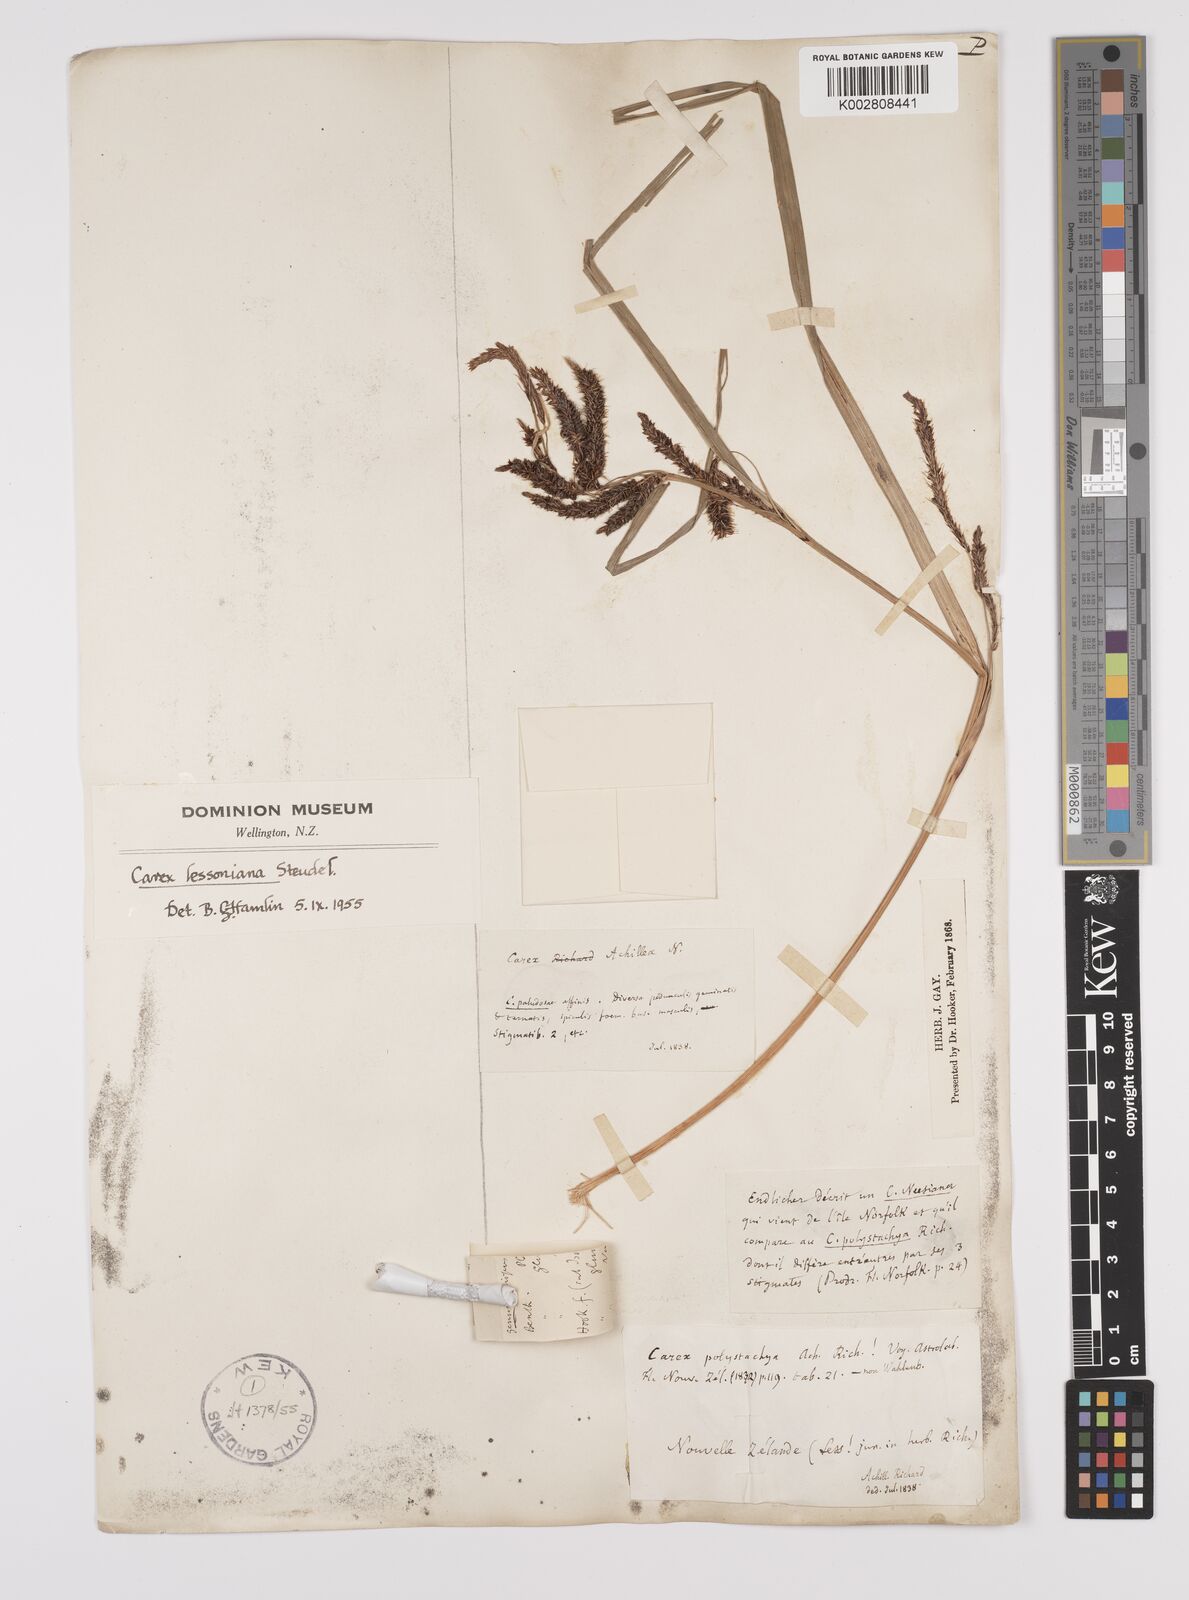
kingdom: Plantae
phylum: Tracheophyta
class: Liliopsida
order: Poales
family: Cyperaceae
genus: Carex
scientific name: Carex lessoniana
